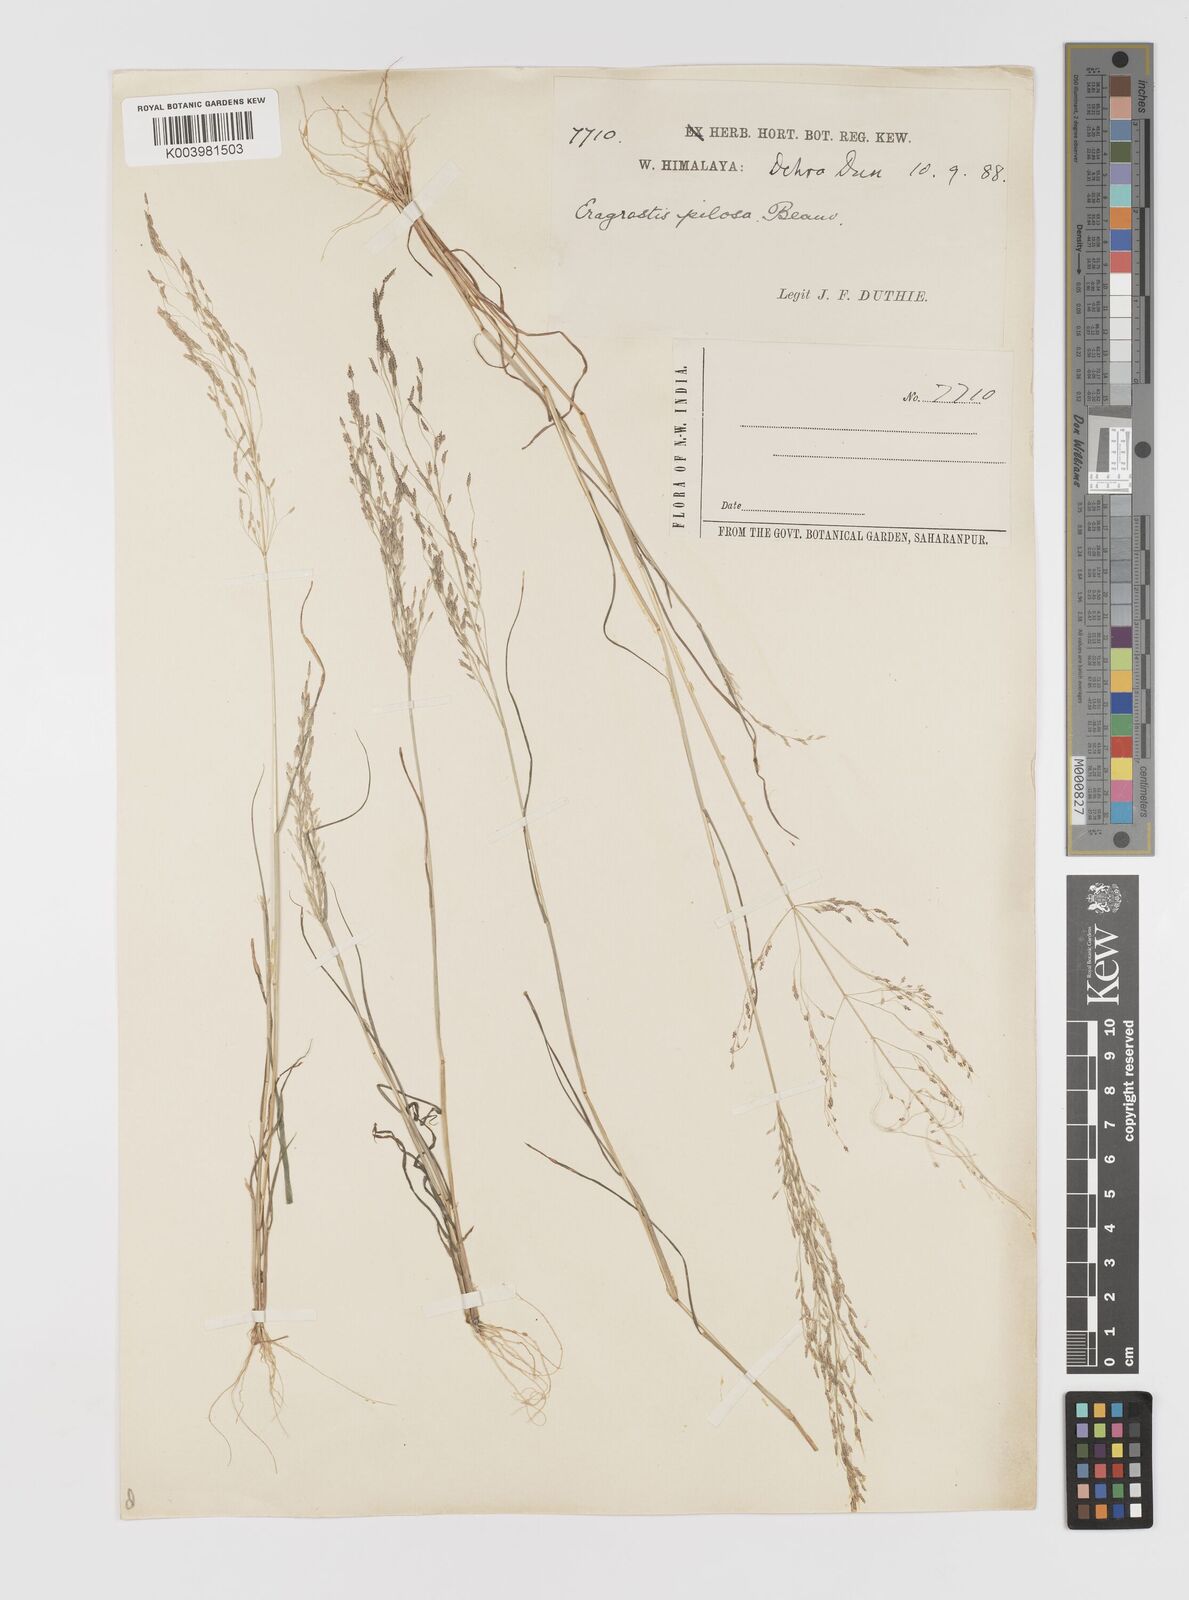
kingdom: Plantae
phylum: Tracheophyta
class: Liliopsida
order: Poales
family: Poaceae
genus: Eragrostis
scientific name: Eragrostis pilosa
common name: Indian lovegrass
